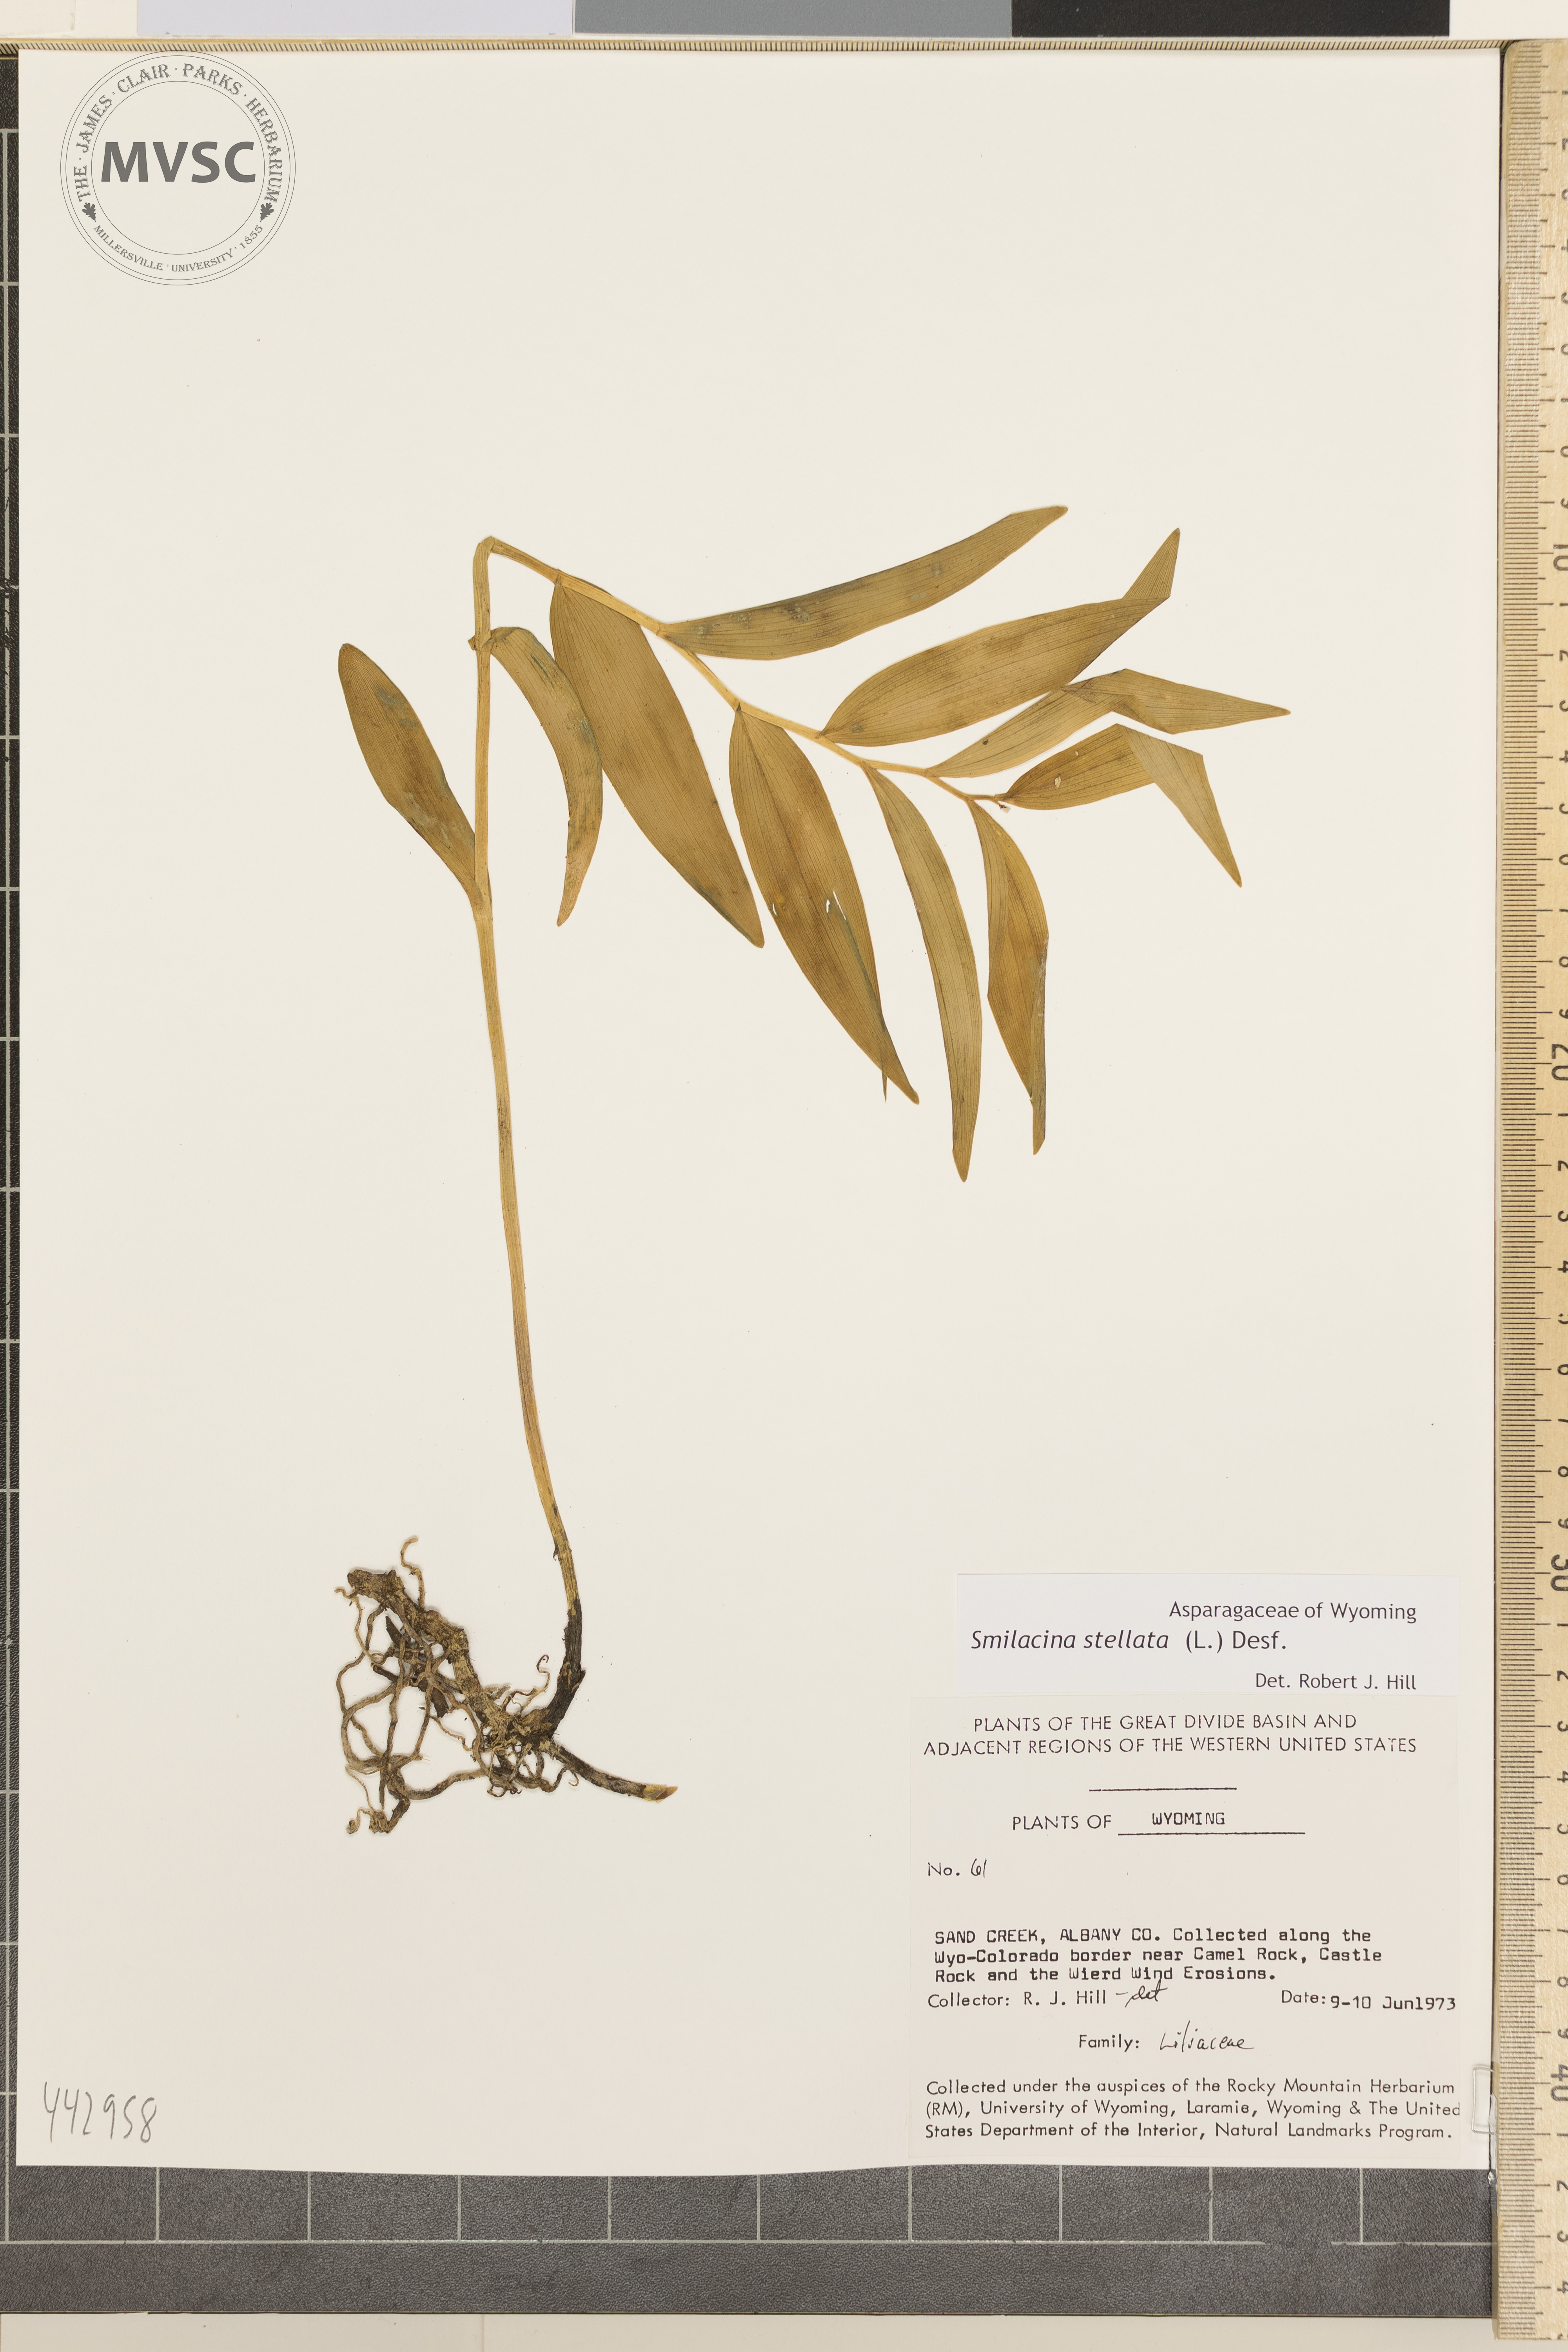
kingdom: Plantae
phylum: Tracheophyta
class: Liliopsida
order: Asparagales
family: Asparagaceae
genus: Maianthemum
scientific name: Maianthemum stellatum
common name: Little false solomon's seal
